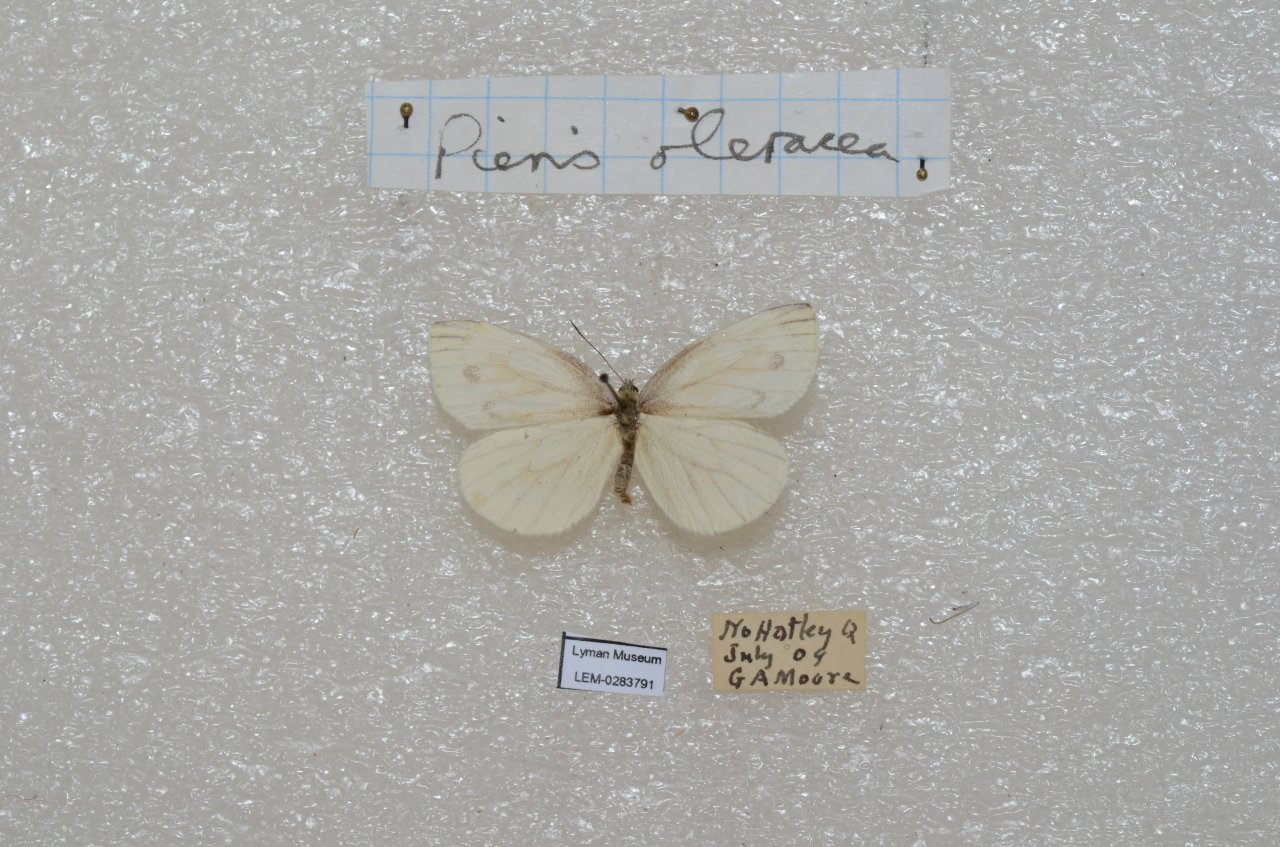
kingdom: Animalia
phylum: Arthropoda
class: Insecta
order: Lepidoptera
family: Pieridae
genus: Pieris
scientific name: Pieris oleracea
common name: Mustard White
